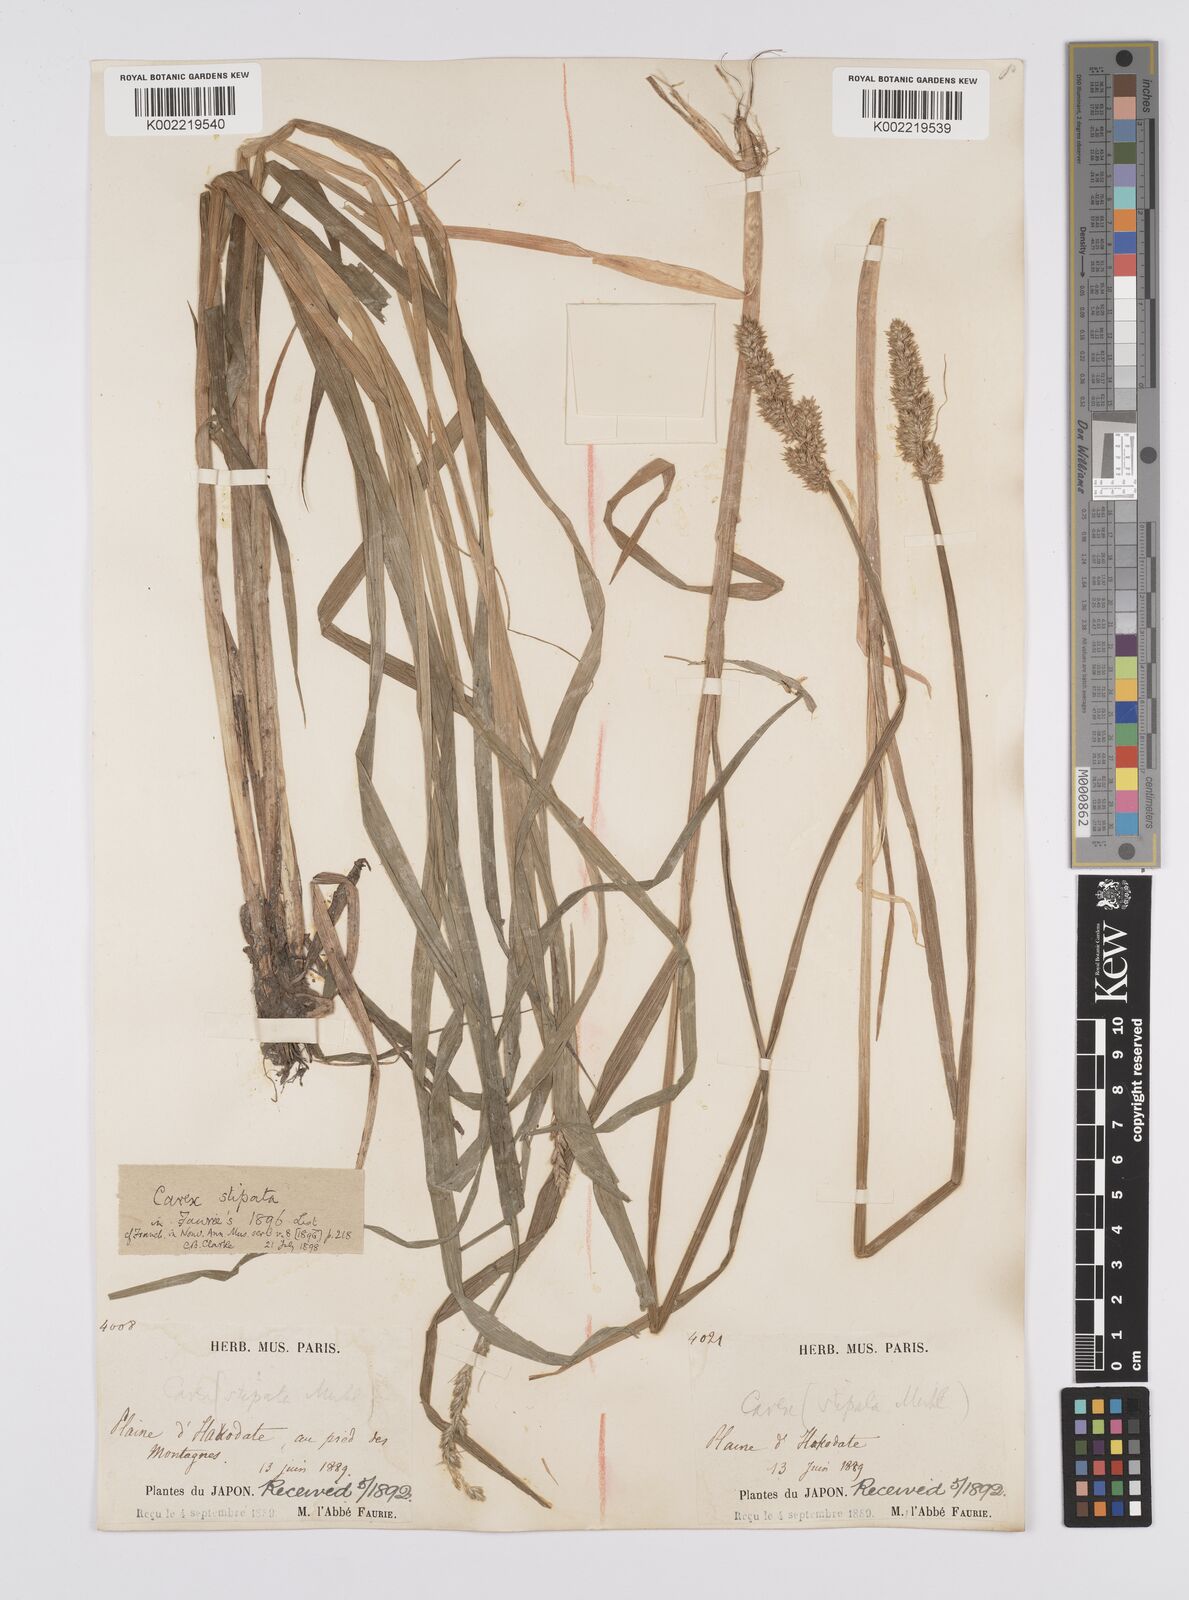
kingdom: Plantae
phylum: Tracheophyta
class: Liliopsida
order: Poales
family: Cyperaceae
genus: Carex
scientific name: Carex stipata
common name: Awl-fruited sedge
